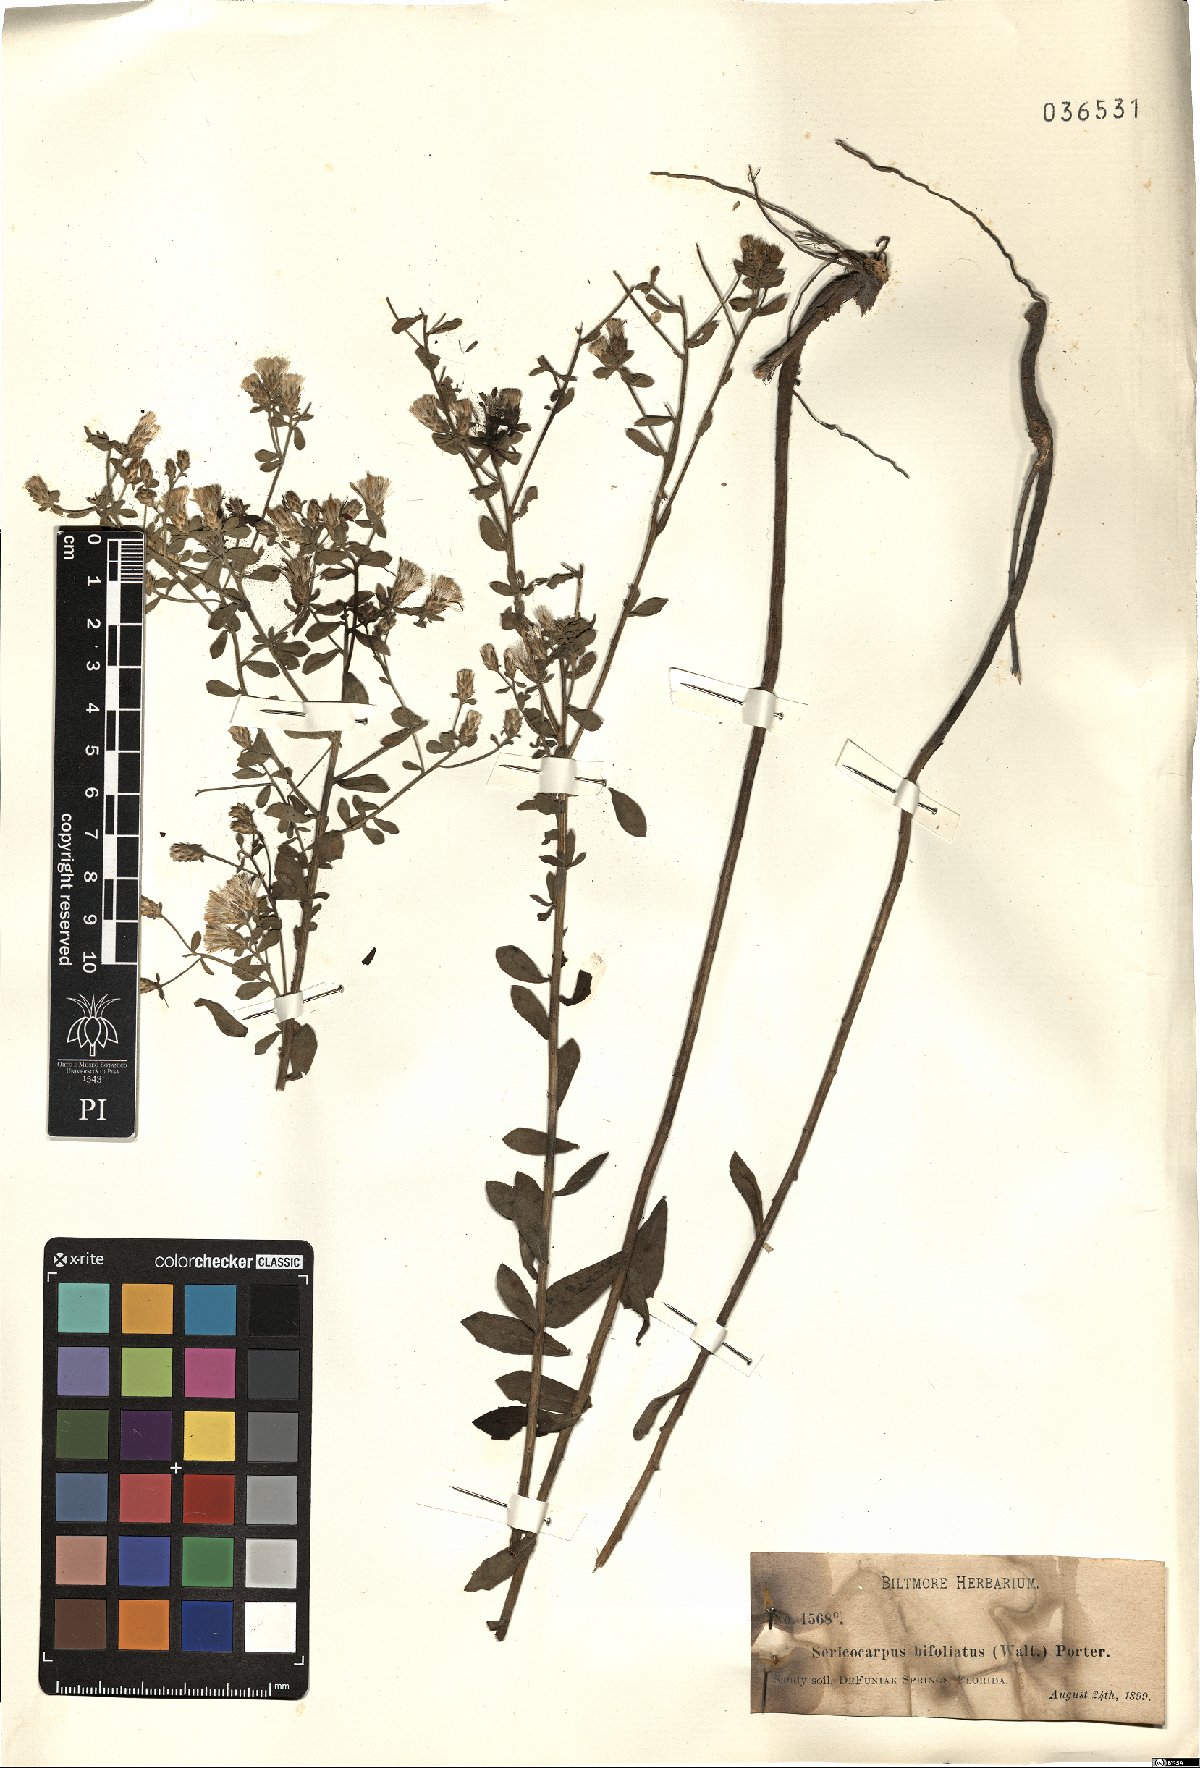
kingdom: Plantae
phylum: Tracheophyta
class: Magnoliopsida
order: Asterales
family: Asteraceae
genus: Sericocarpus
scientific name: Sericocarpus
